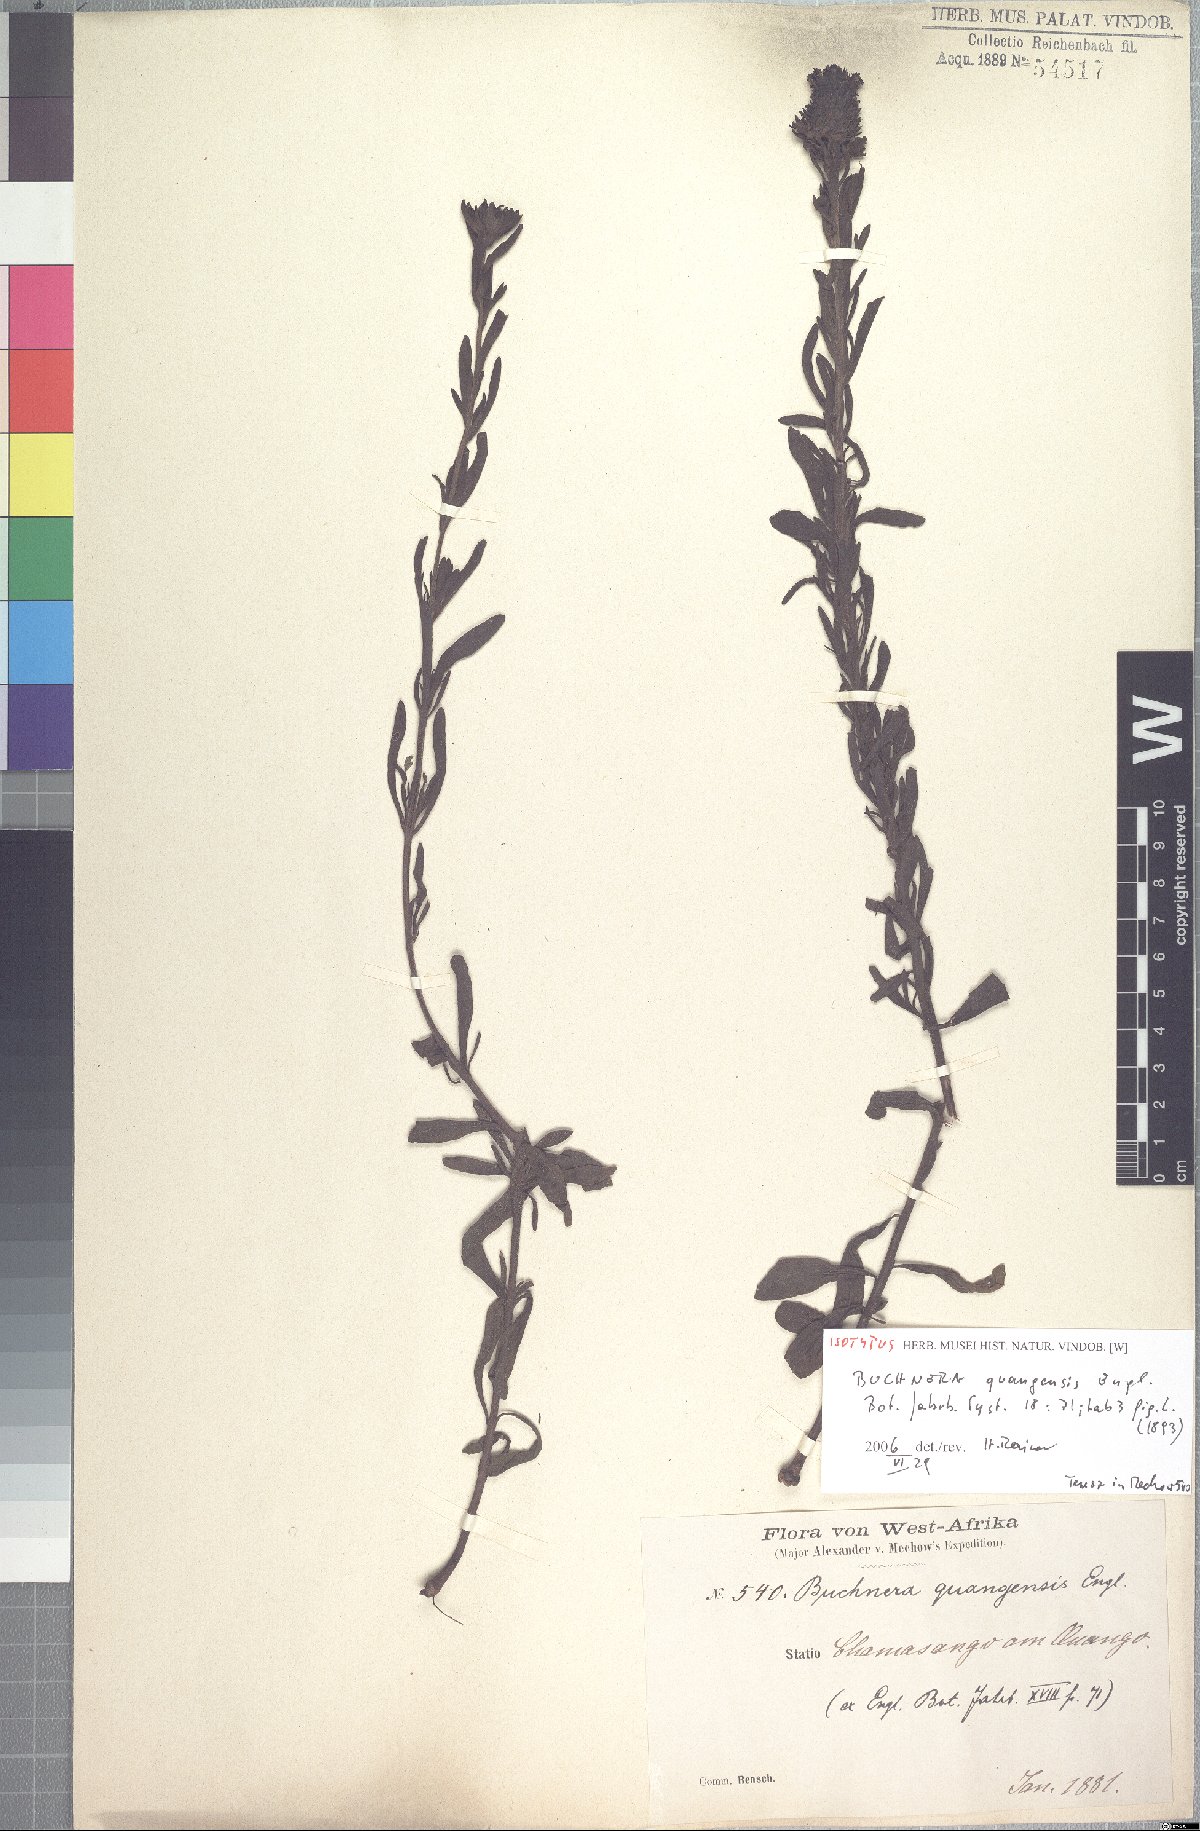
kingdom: Plantae
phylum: Tracheophyta
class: Magnoliopsida
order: Lamiales
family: Orobanchaceae
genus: Buchnera
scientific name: Buchnera quangensis
